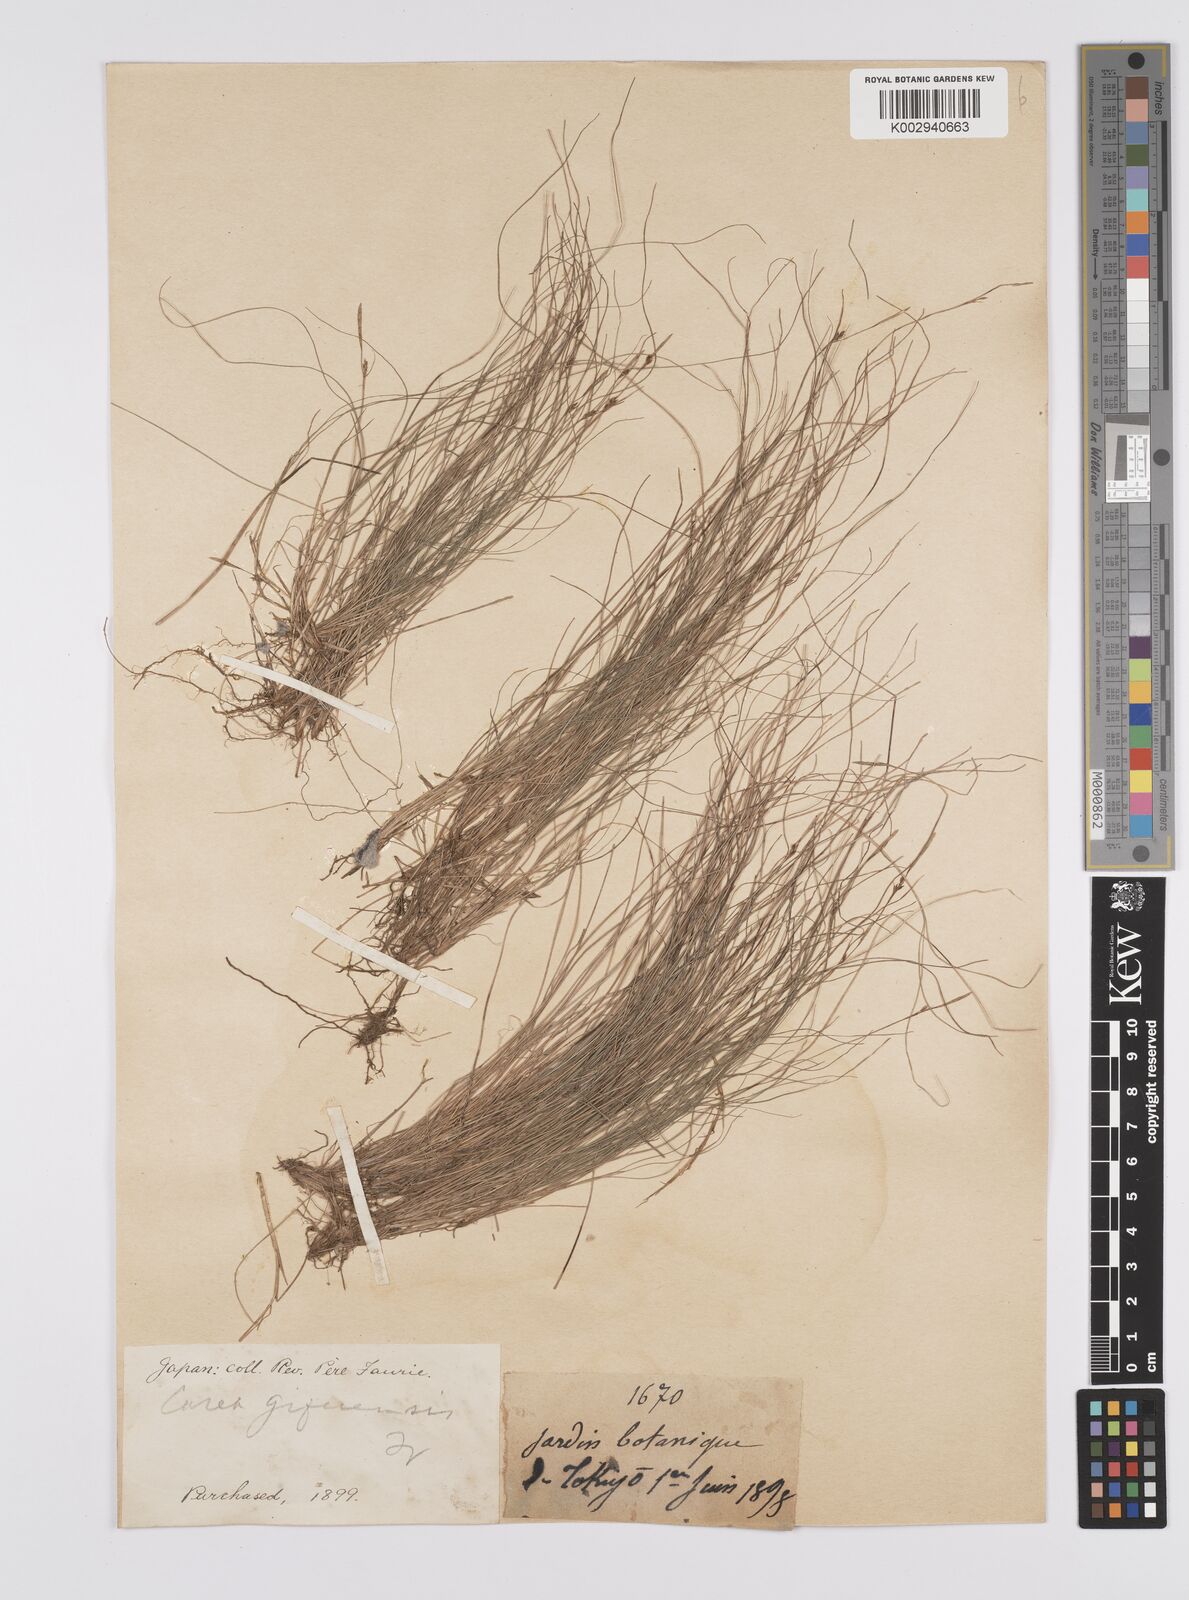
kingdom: Plantae
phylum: Tracheophyta
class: Liliopsida
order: Poales
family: Cyperaceae
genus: Carex
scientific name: Carex gifuensis
